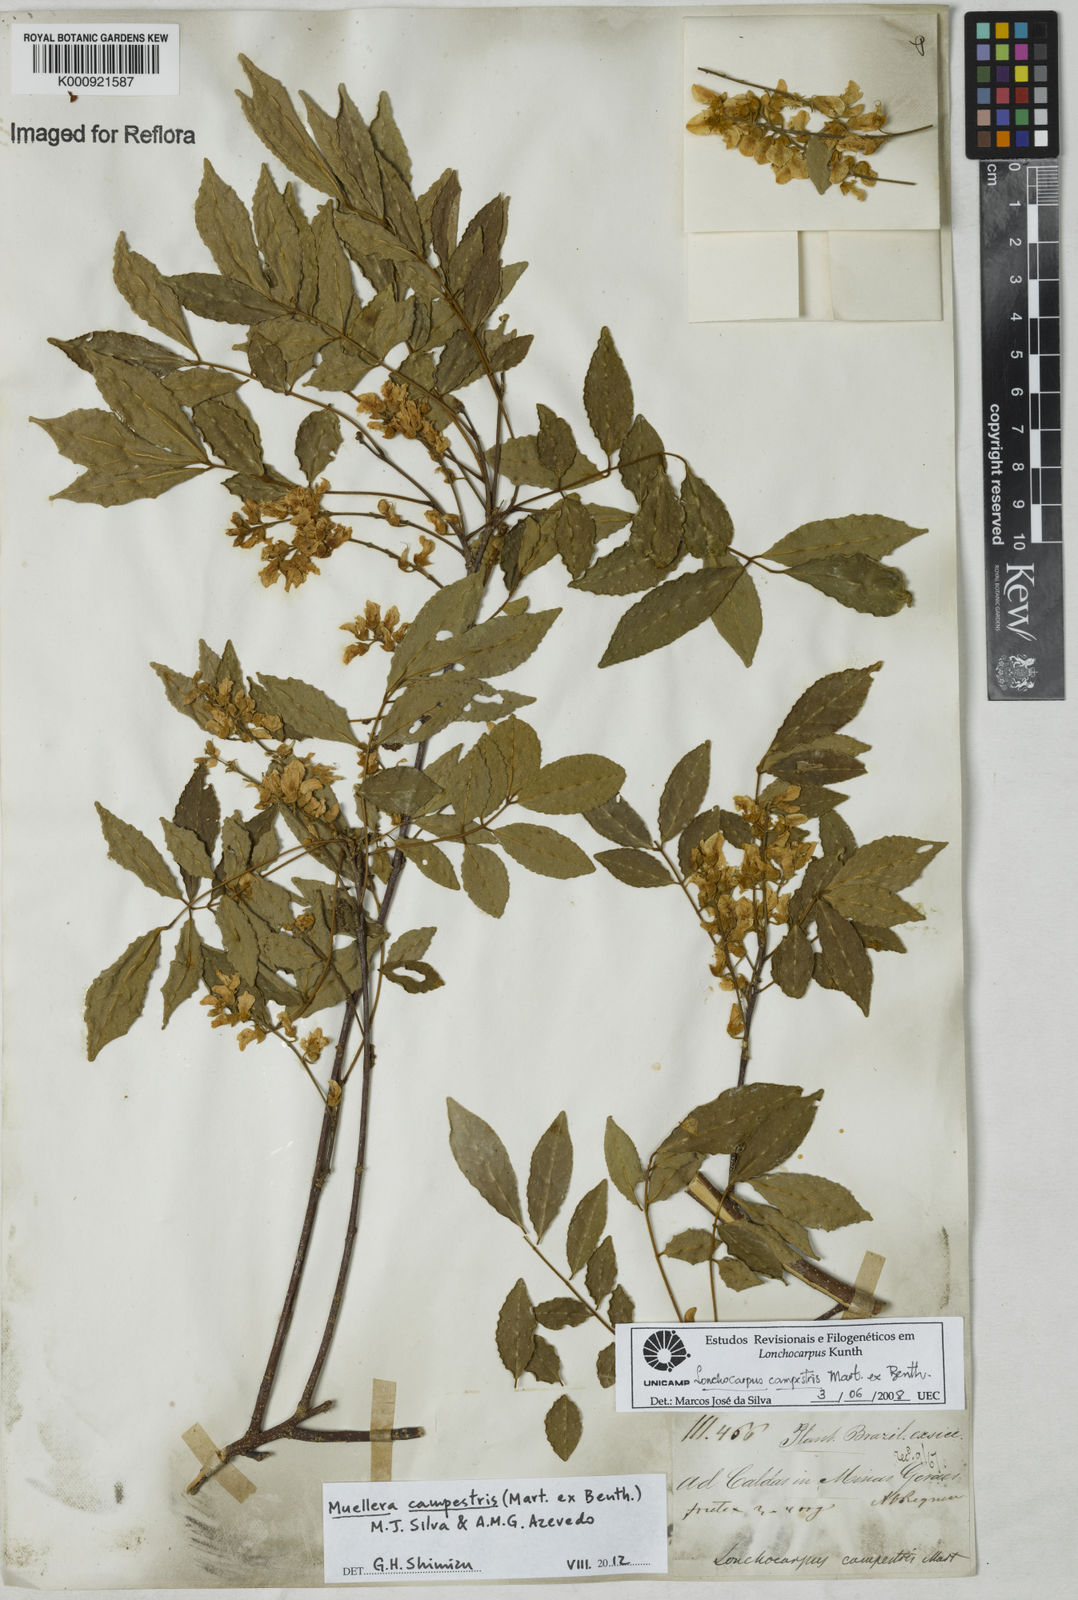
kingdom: Plantae
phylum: Tracheophyta
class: Magnoliopsida
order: Fabales
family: Fabaceae
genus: Muellera
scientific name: Muellera campestris
